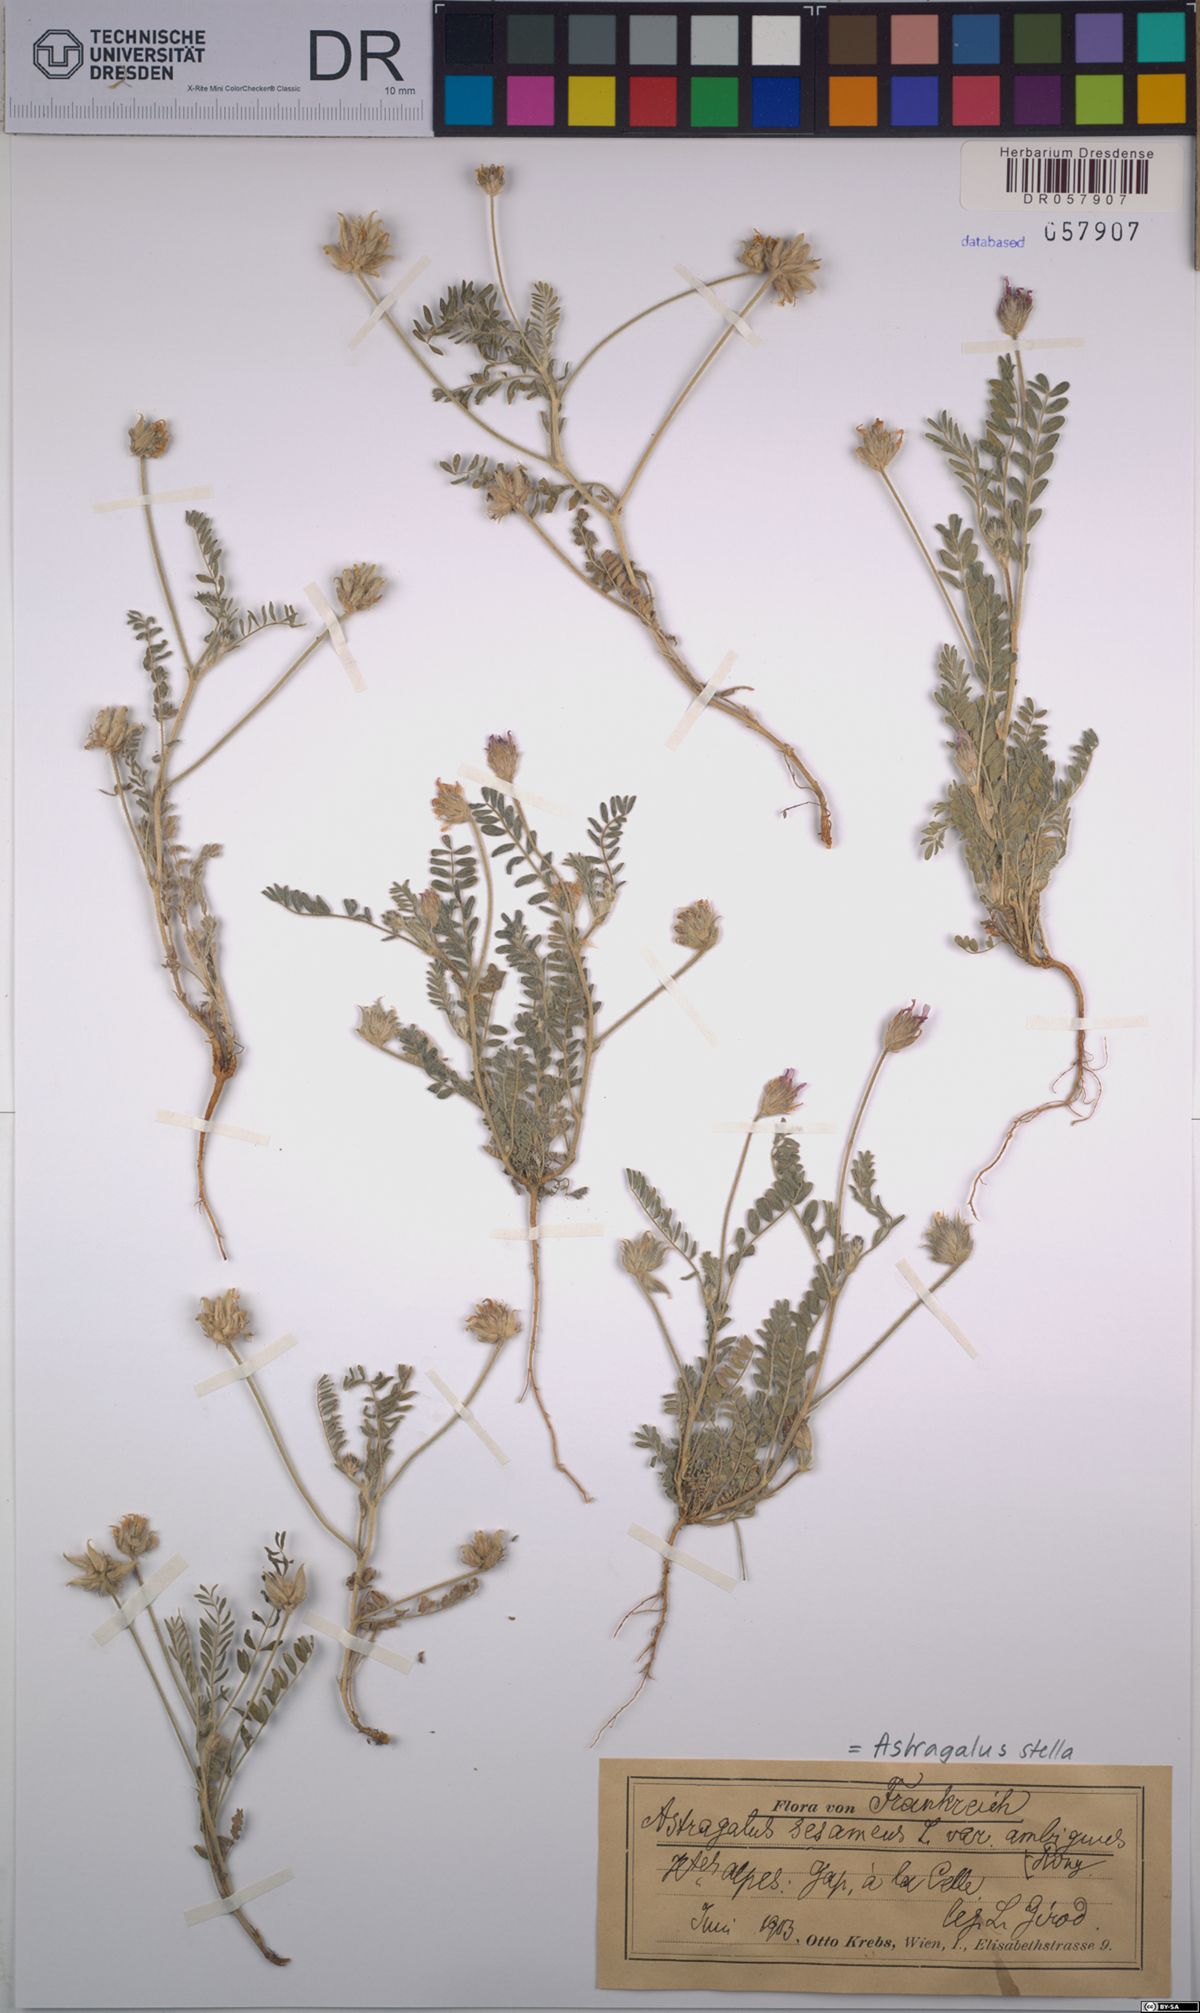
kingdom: Plantae
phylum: Tracheophyta
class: Magnoliopsida
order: Fabales
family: Fabaceae
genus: Astragalus
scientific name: Astragalus stella
